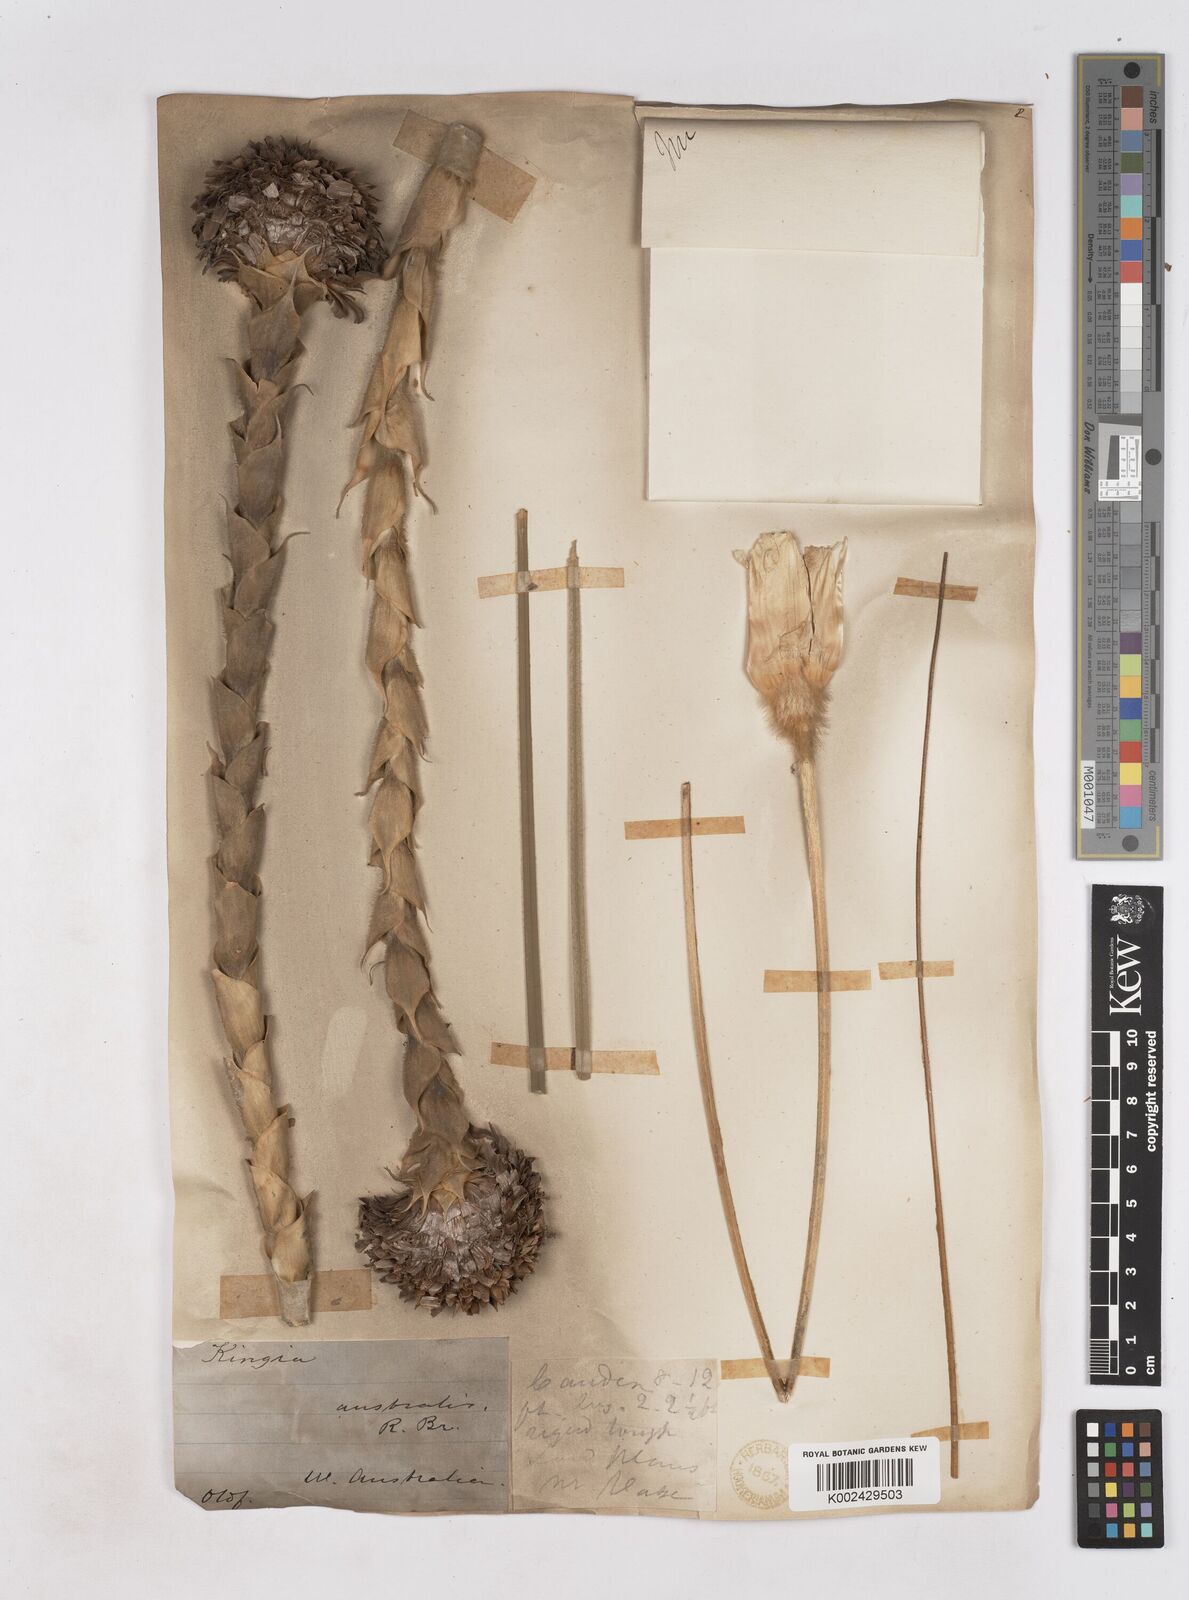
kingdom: Plantae
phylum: Tracheophyta
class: Liliopsida
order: Arecales
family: Dasypogonaceae
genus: Kingia
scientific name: Kingia australis
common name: Black gin
